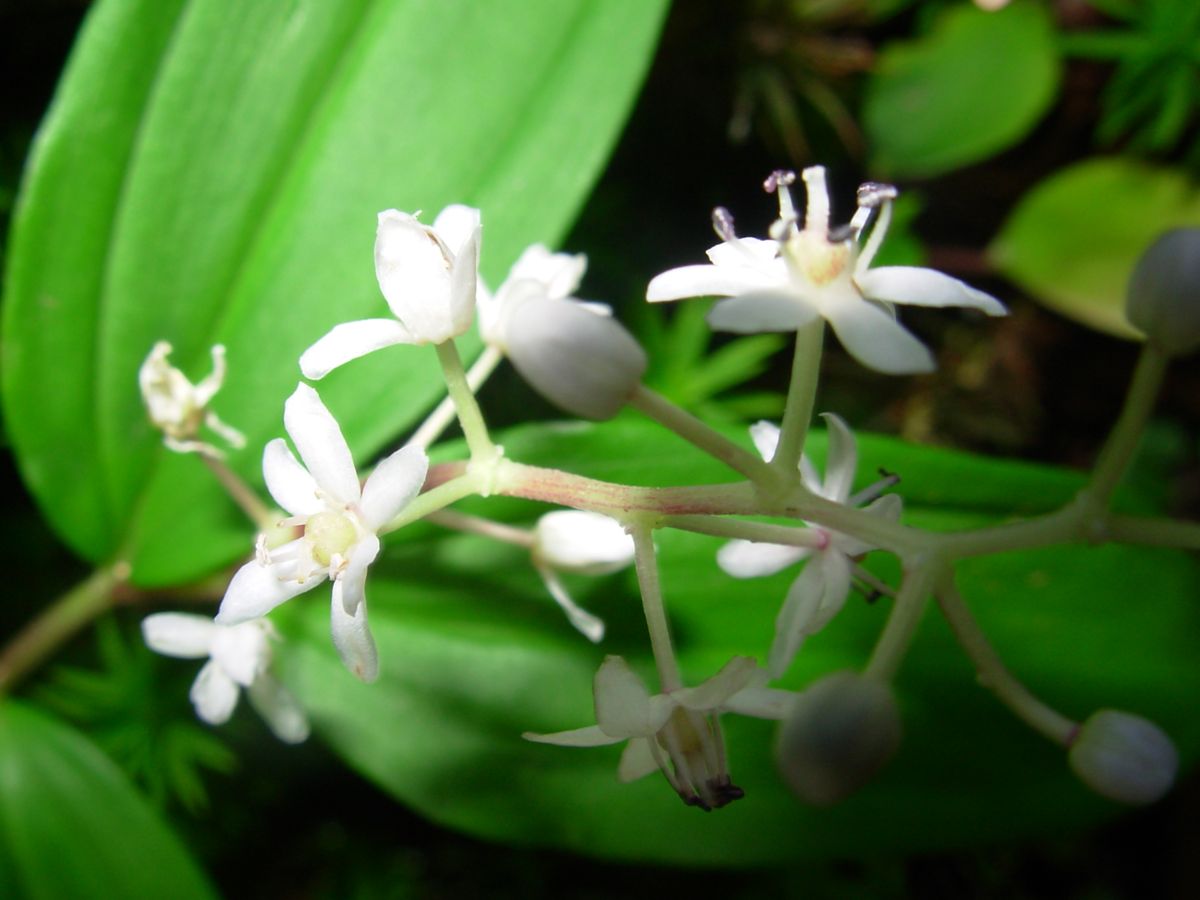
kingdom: Plantae
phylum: Tracheophyta
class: Liliopsida
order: Asparagales
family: Asparagaceae
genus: Maianthemum
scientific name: Maianthemum flexuosum
